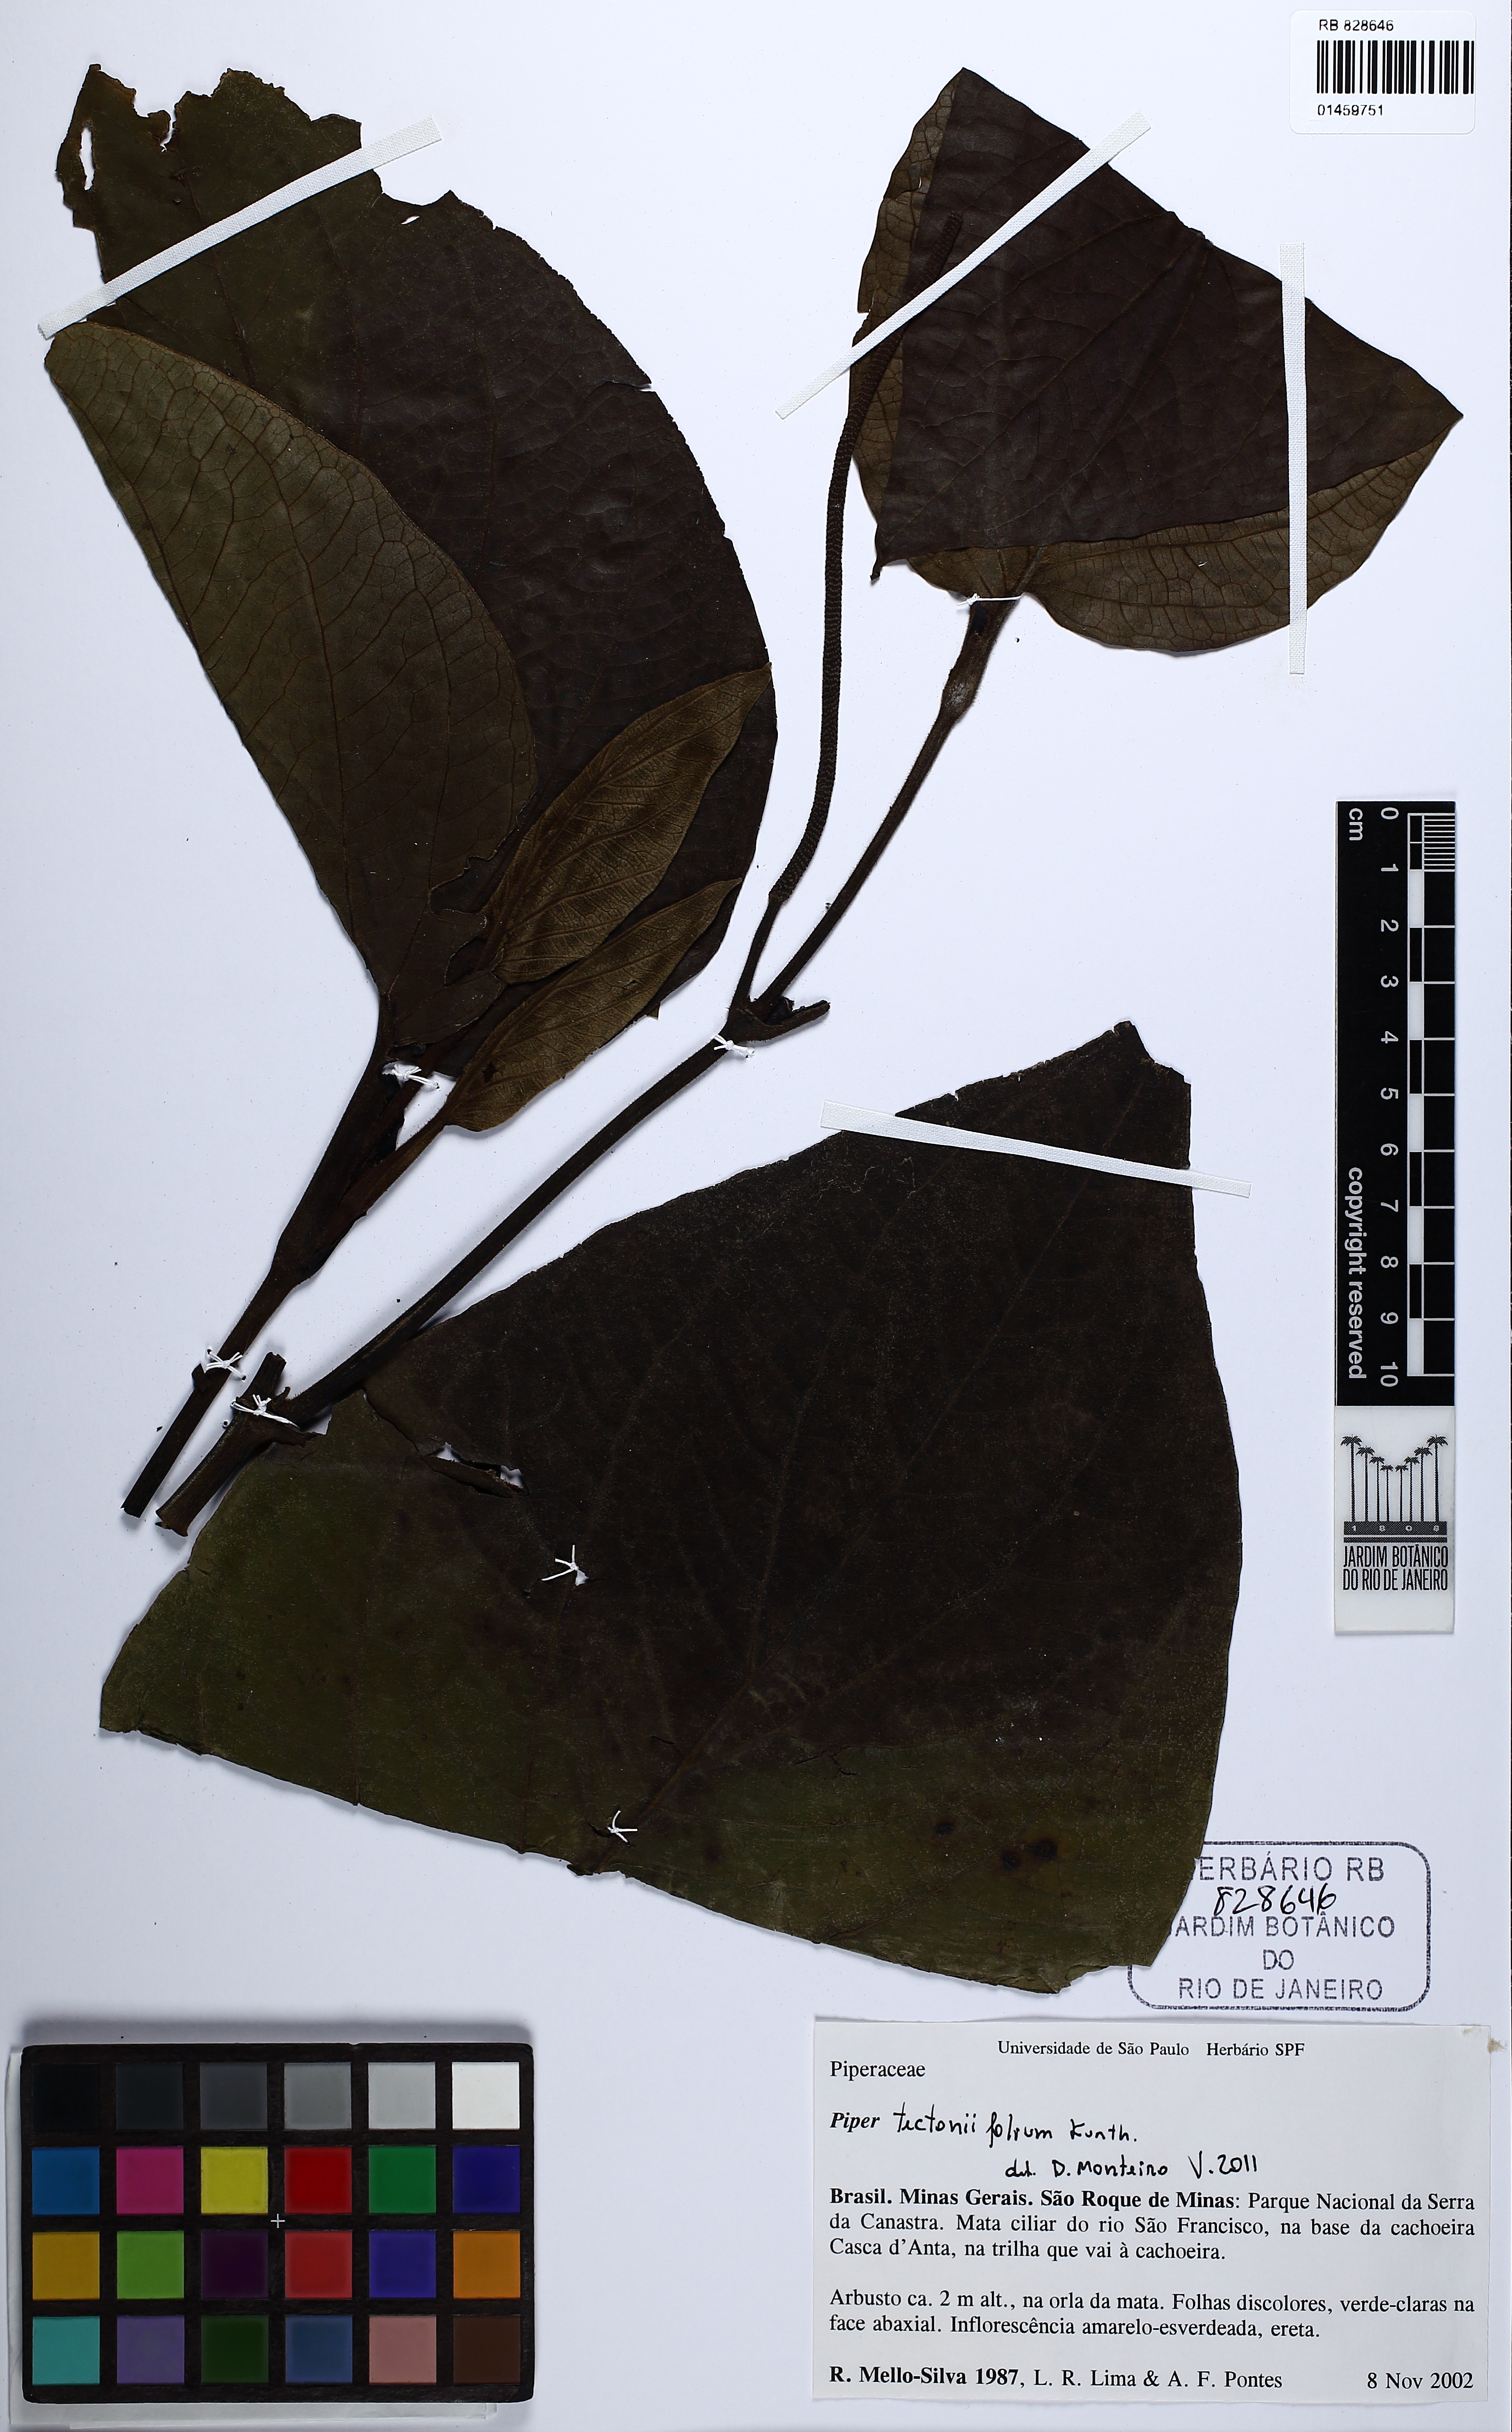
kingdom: Plantae
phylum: Tracheophyta
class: Magnoliopsida
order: Piperales
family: Piperaceae
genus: Piper
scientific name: Piper tectoniifolium
